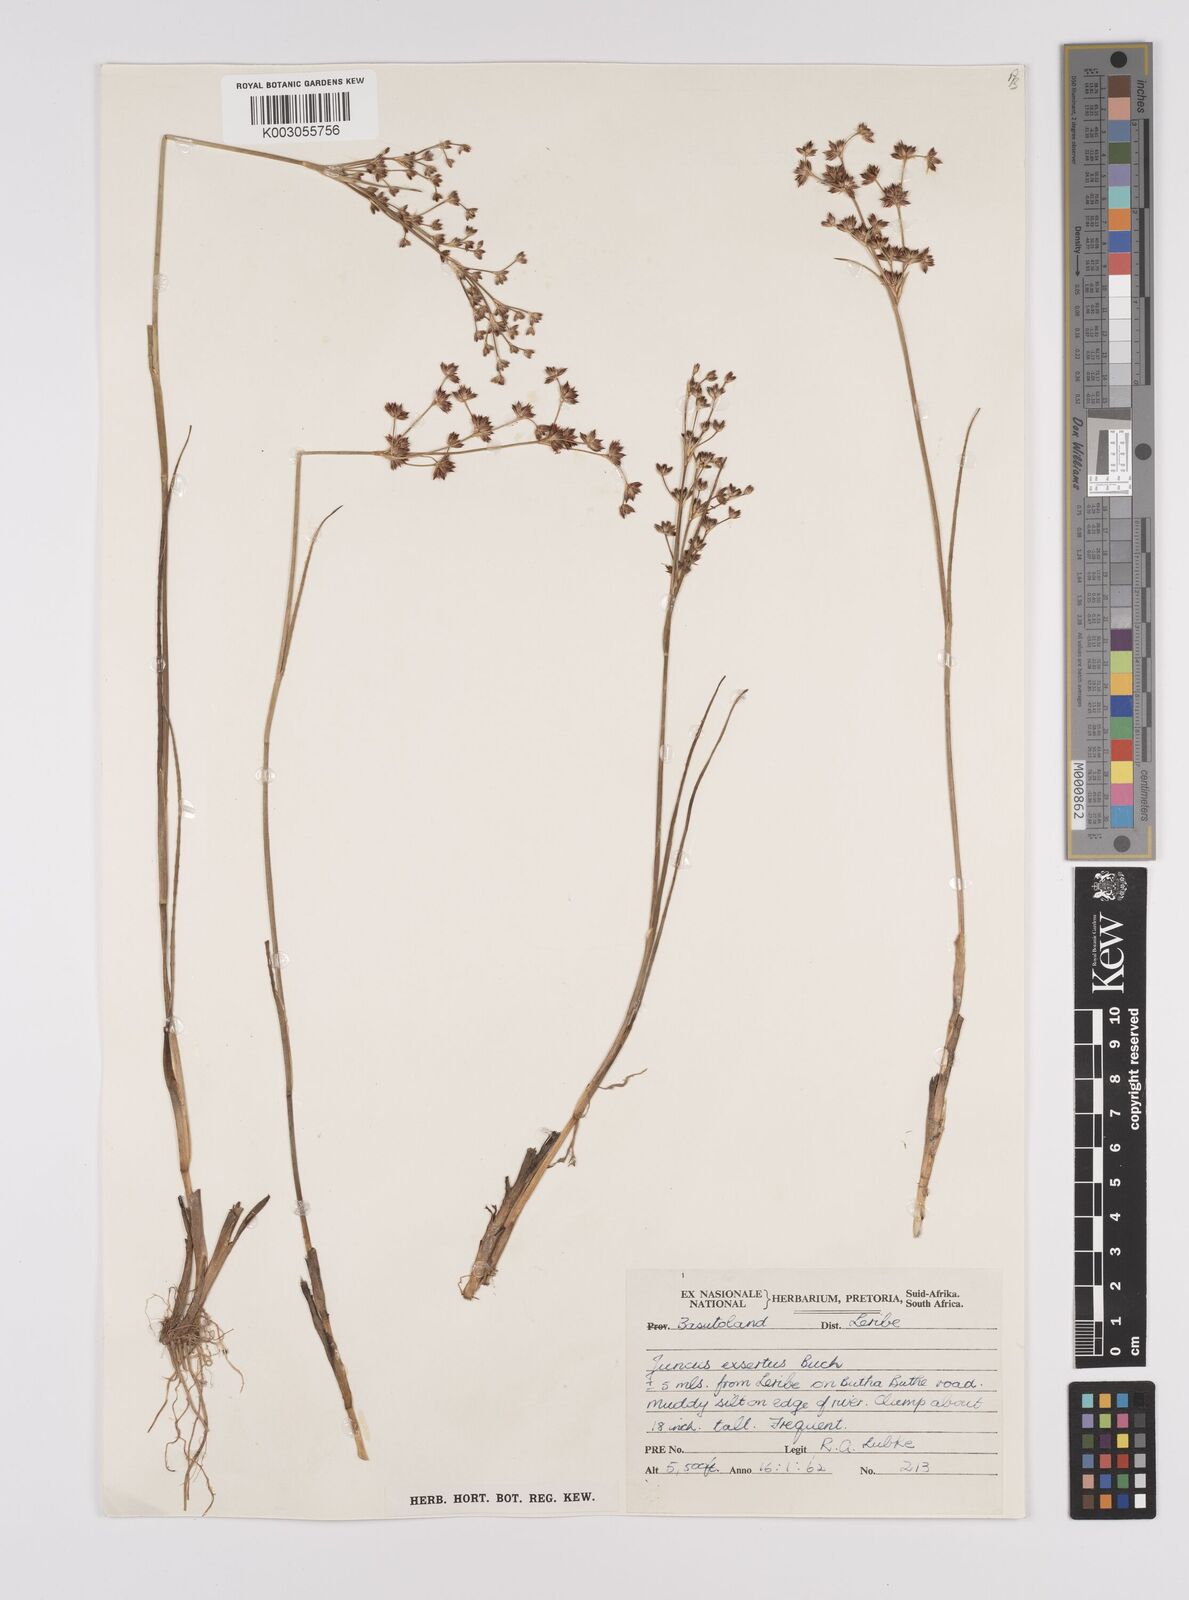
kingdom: Plantae
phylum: Tracheophyta
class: Liliopsida
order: Poales
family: Juncaceae
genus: Juncus
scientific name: Juncus exsertus
